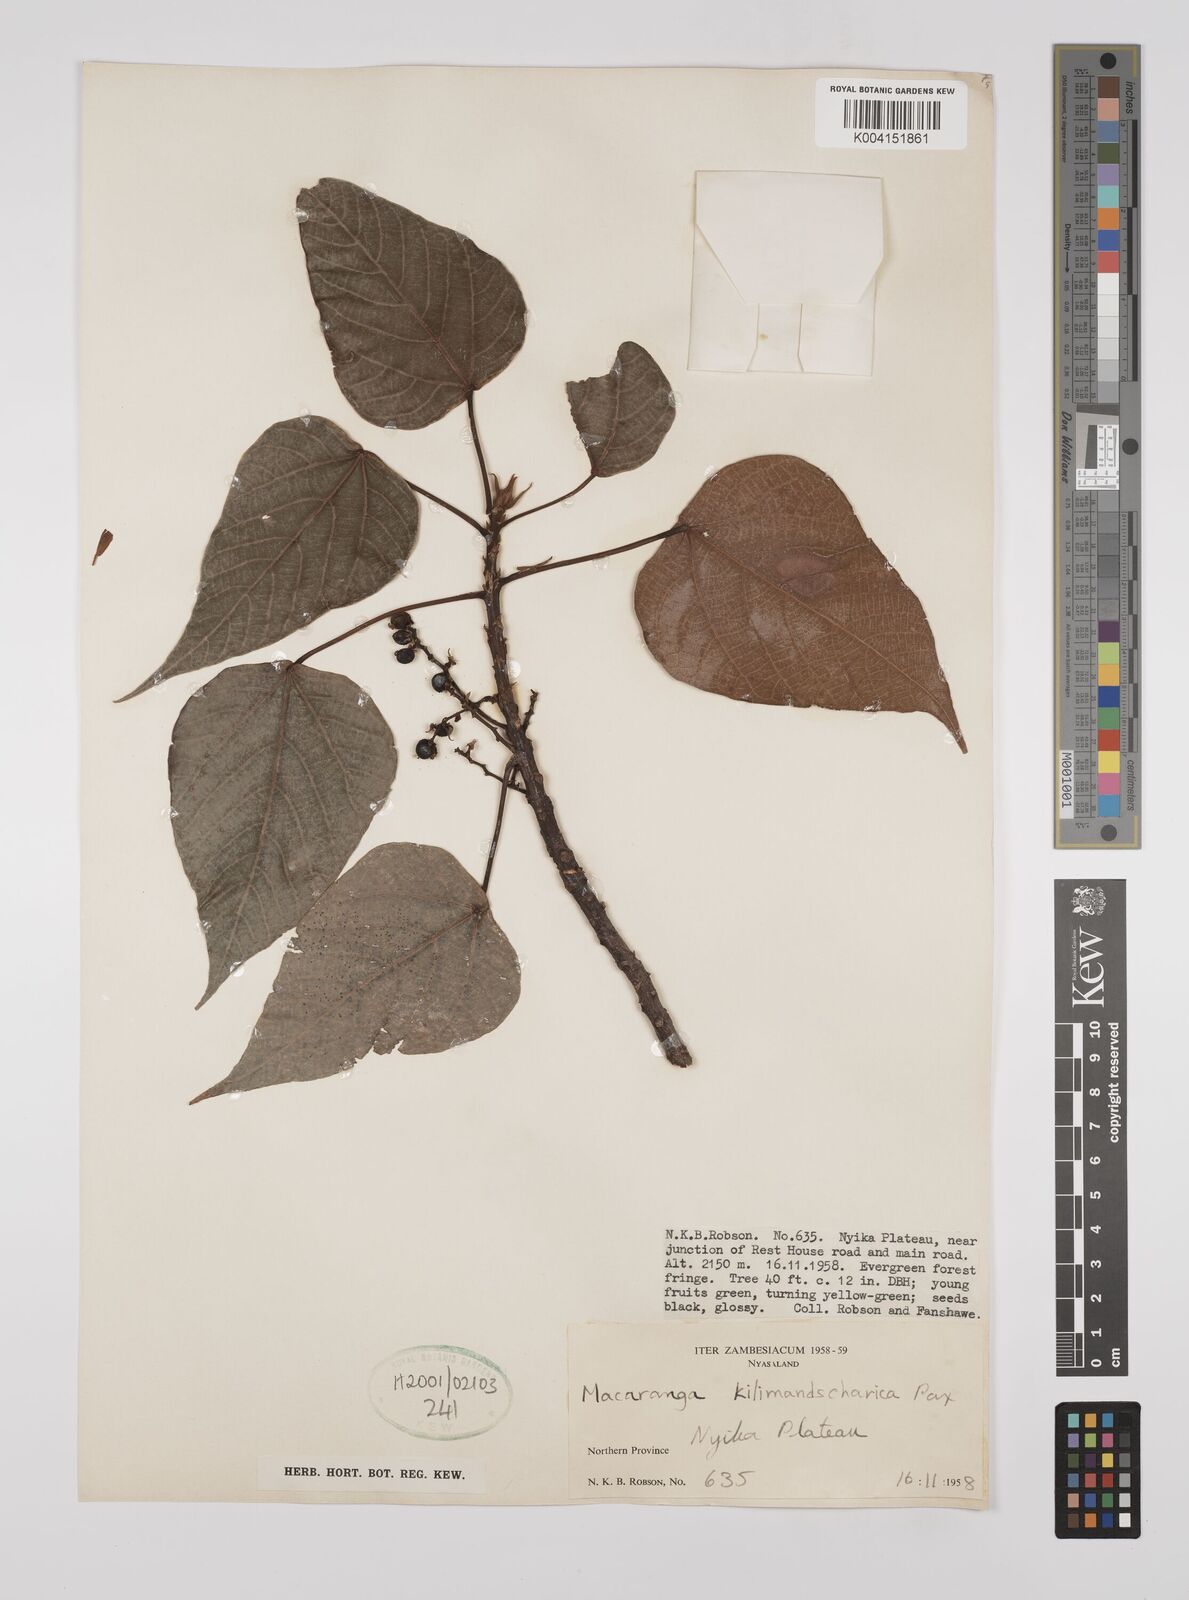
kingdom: Plantae
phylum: Tracheophyta
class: Magnoliopsida
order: Malpighiales
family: Euphorbiaceae
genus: Macaranga
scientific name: Macaranga kilimandscharica
